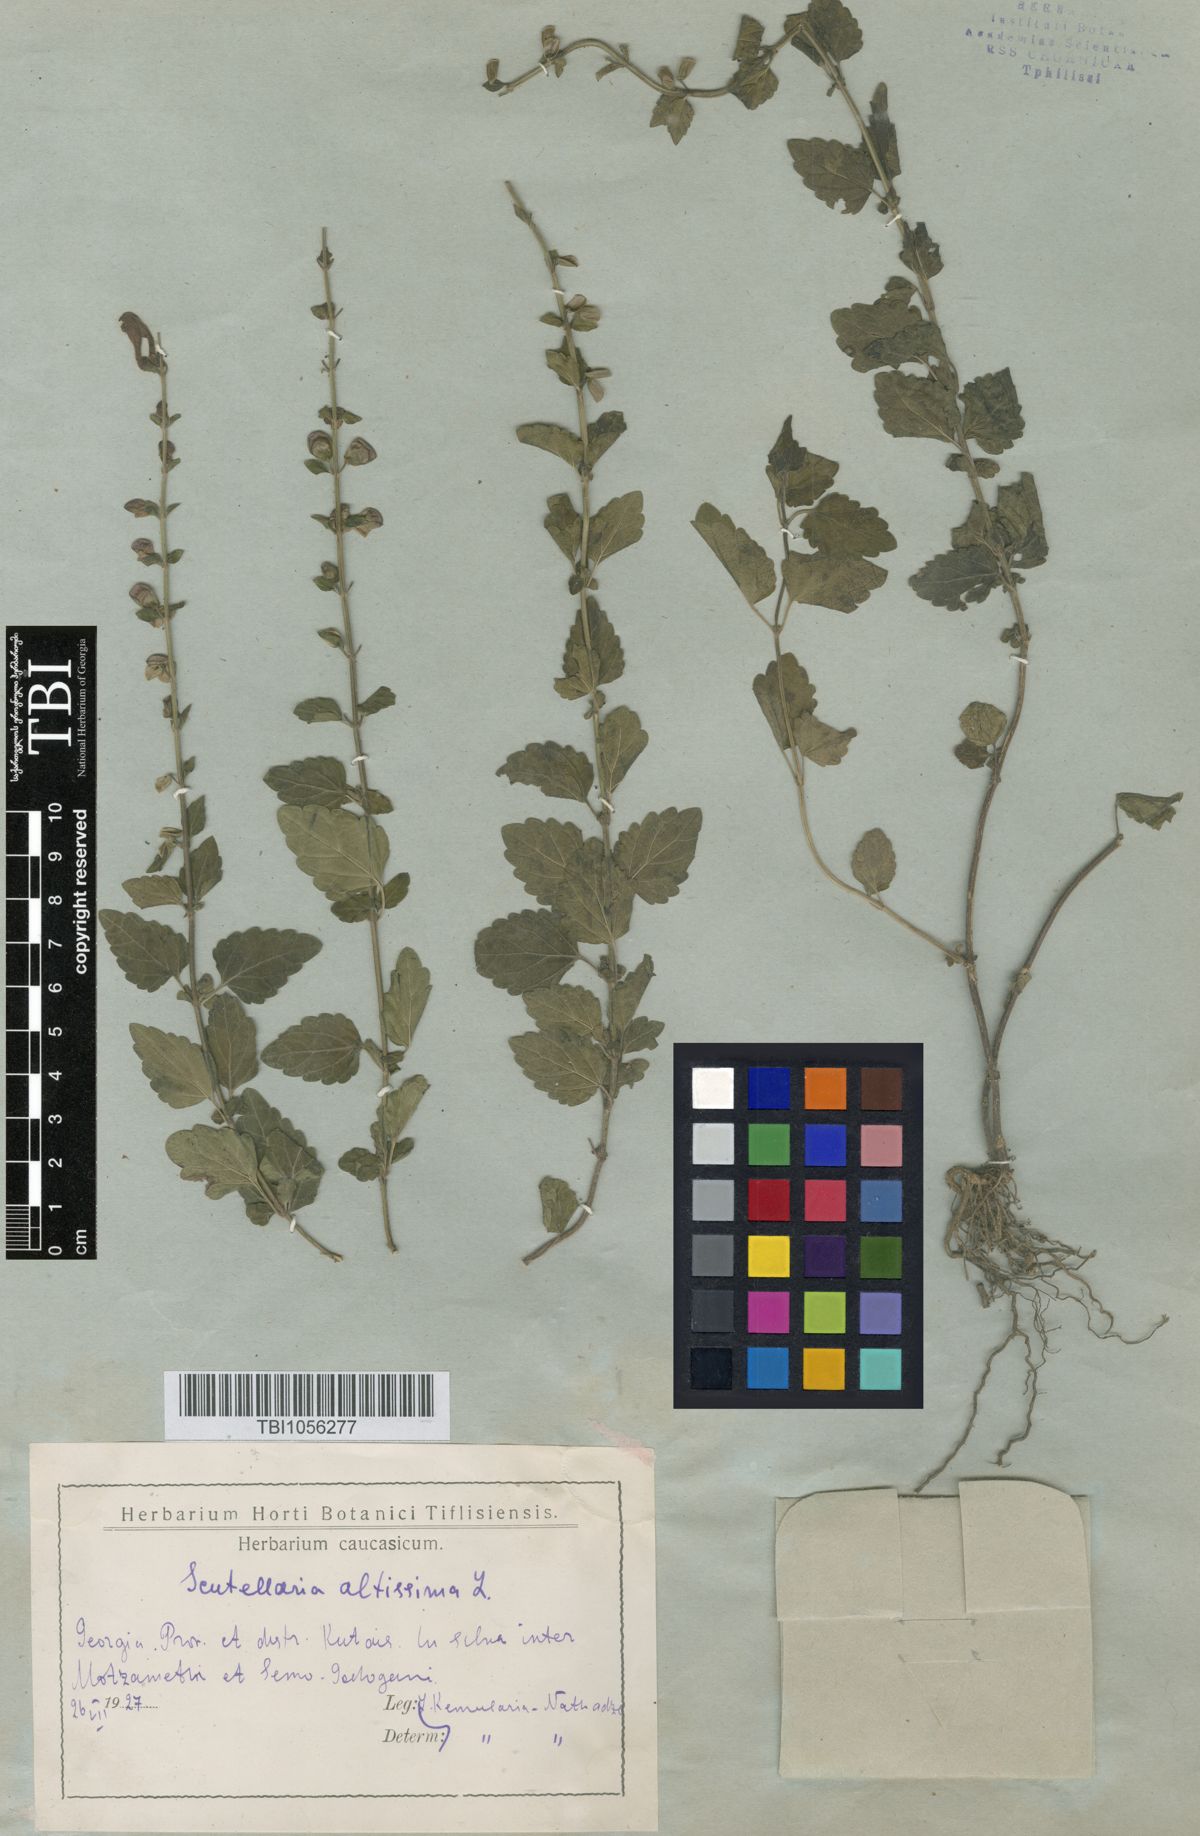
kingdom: Plantae
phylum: Tracheophyta
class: Magnoliopsida
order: Lamiales
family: Lamiaceae
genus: Scutellaria
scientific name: Scutellaria altissima
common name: Somerset skullcap
